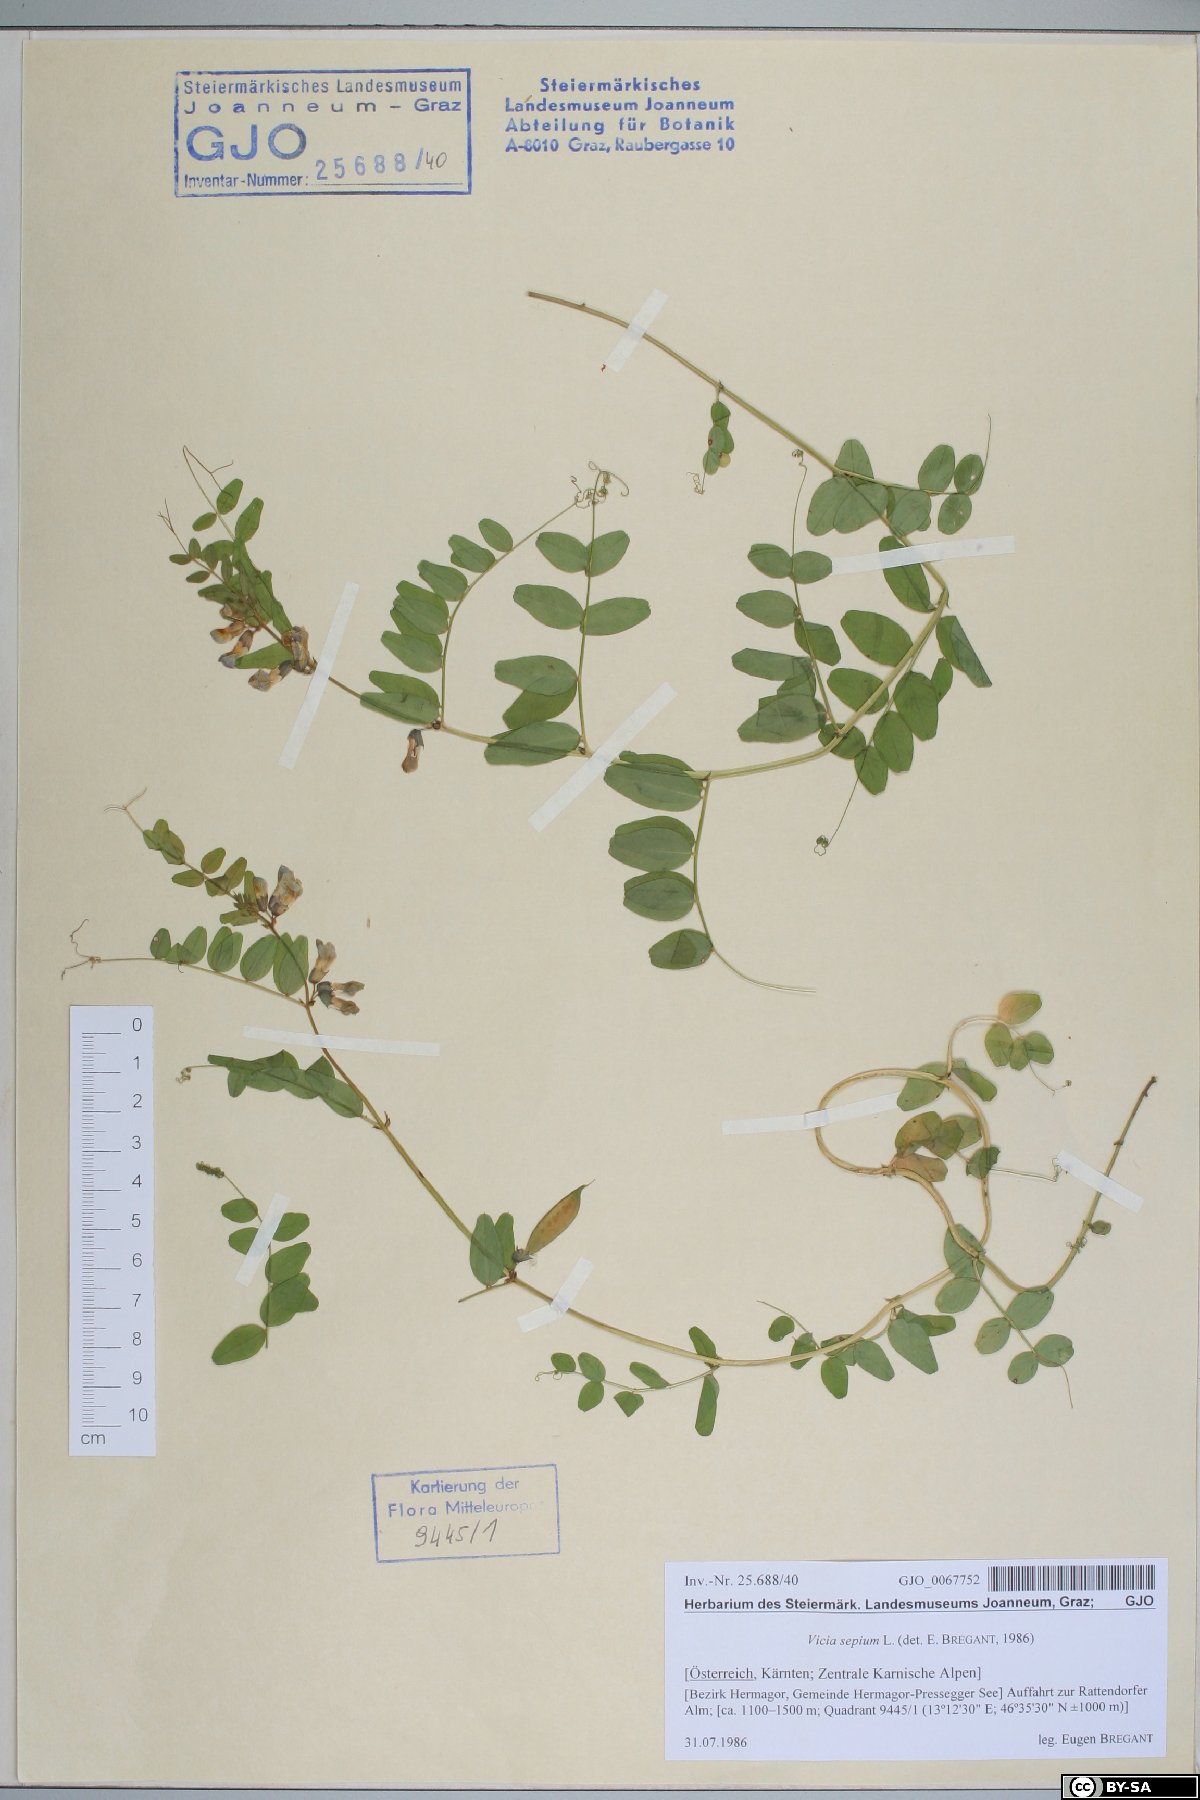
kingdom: Plantae
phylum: Tracheophyta
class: Magnoliopsida
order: Fabales
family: Fabaceae
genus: Vicia
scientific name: Vicia sepium
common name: Bush vetch
